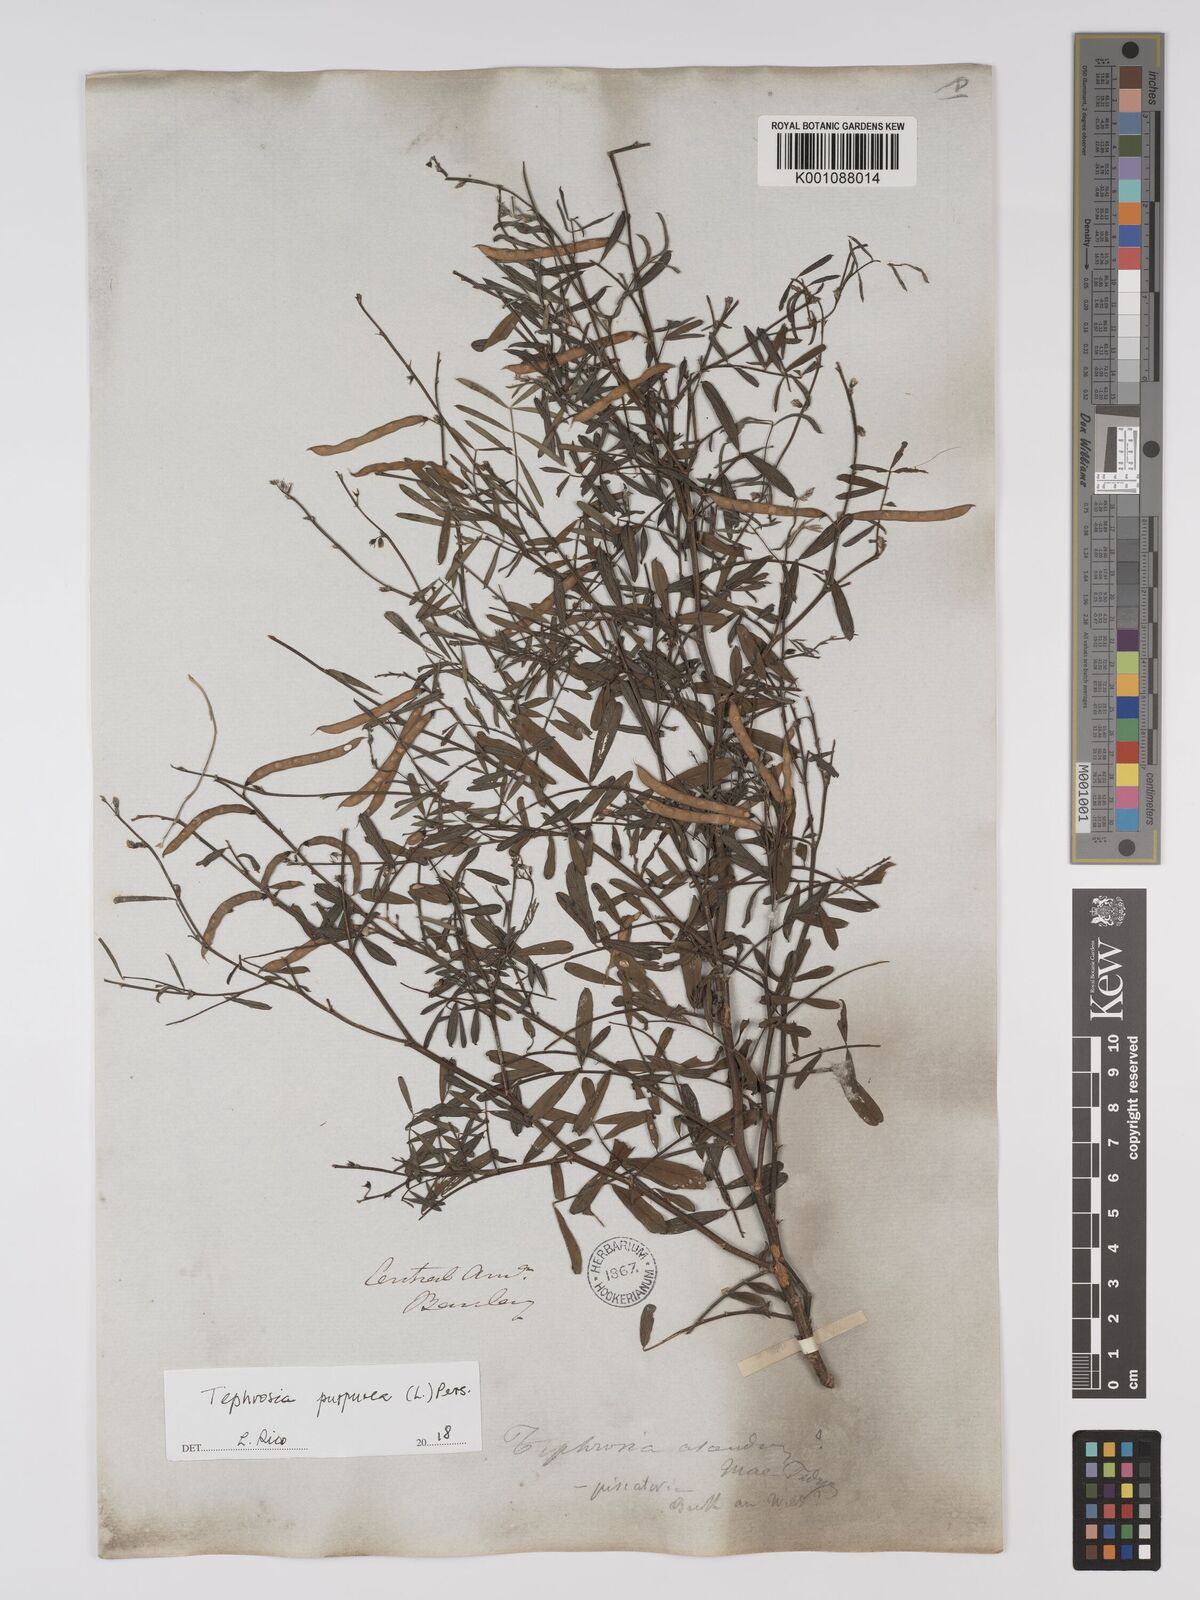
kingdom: Plantae
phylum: Tracheophyta
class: Magnoliopsida
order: Fabales
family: Fabaceae
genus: Tephrosia
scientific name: Tephrosia purpurea
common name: Fishpoison
